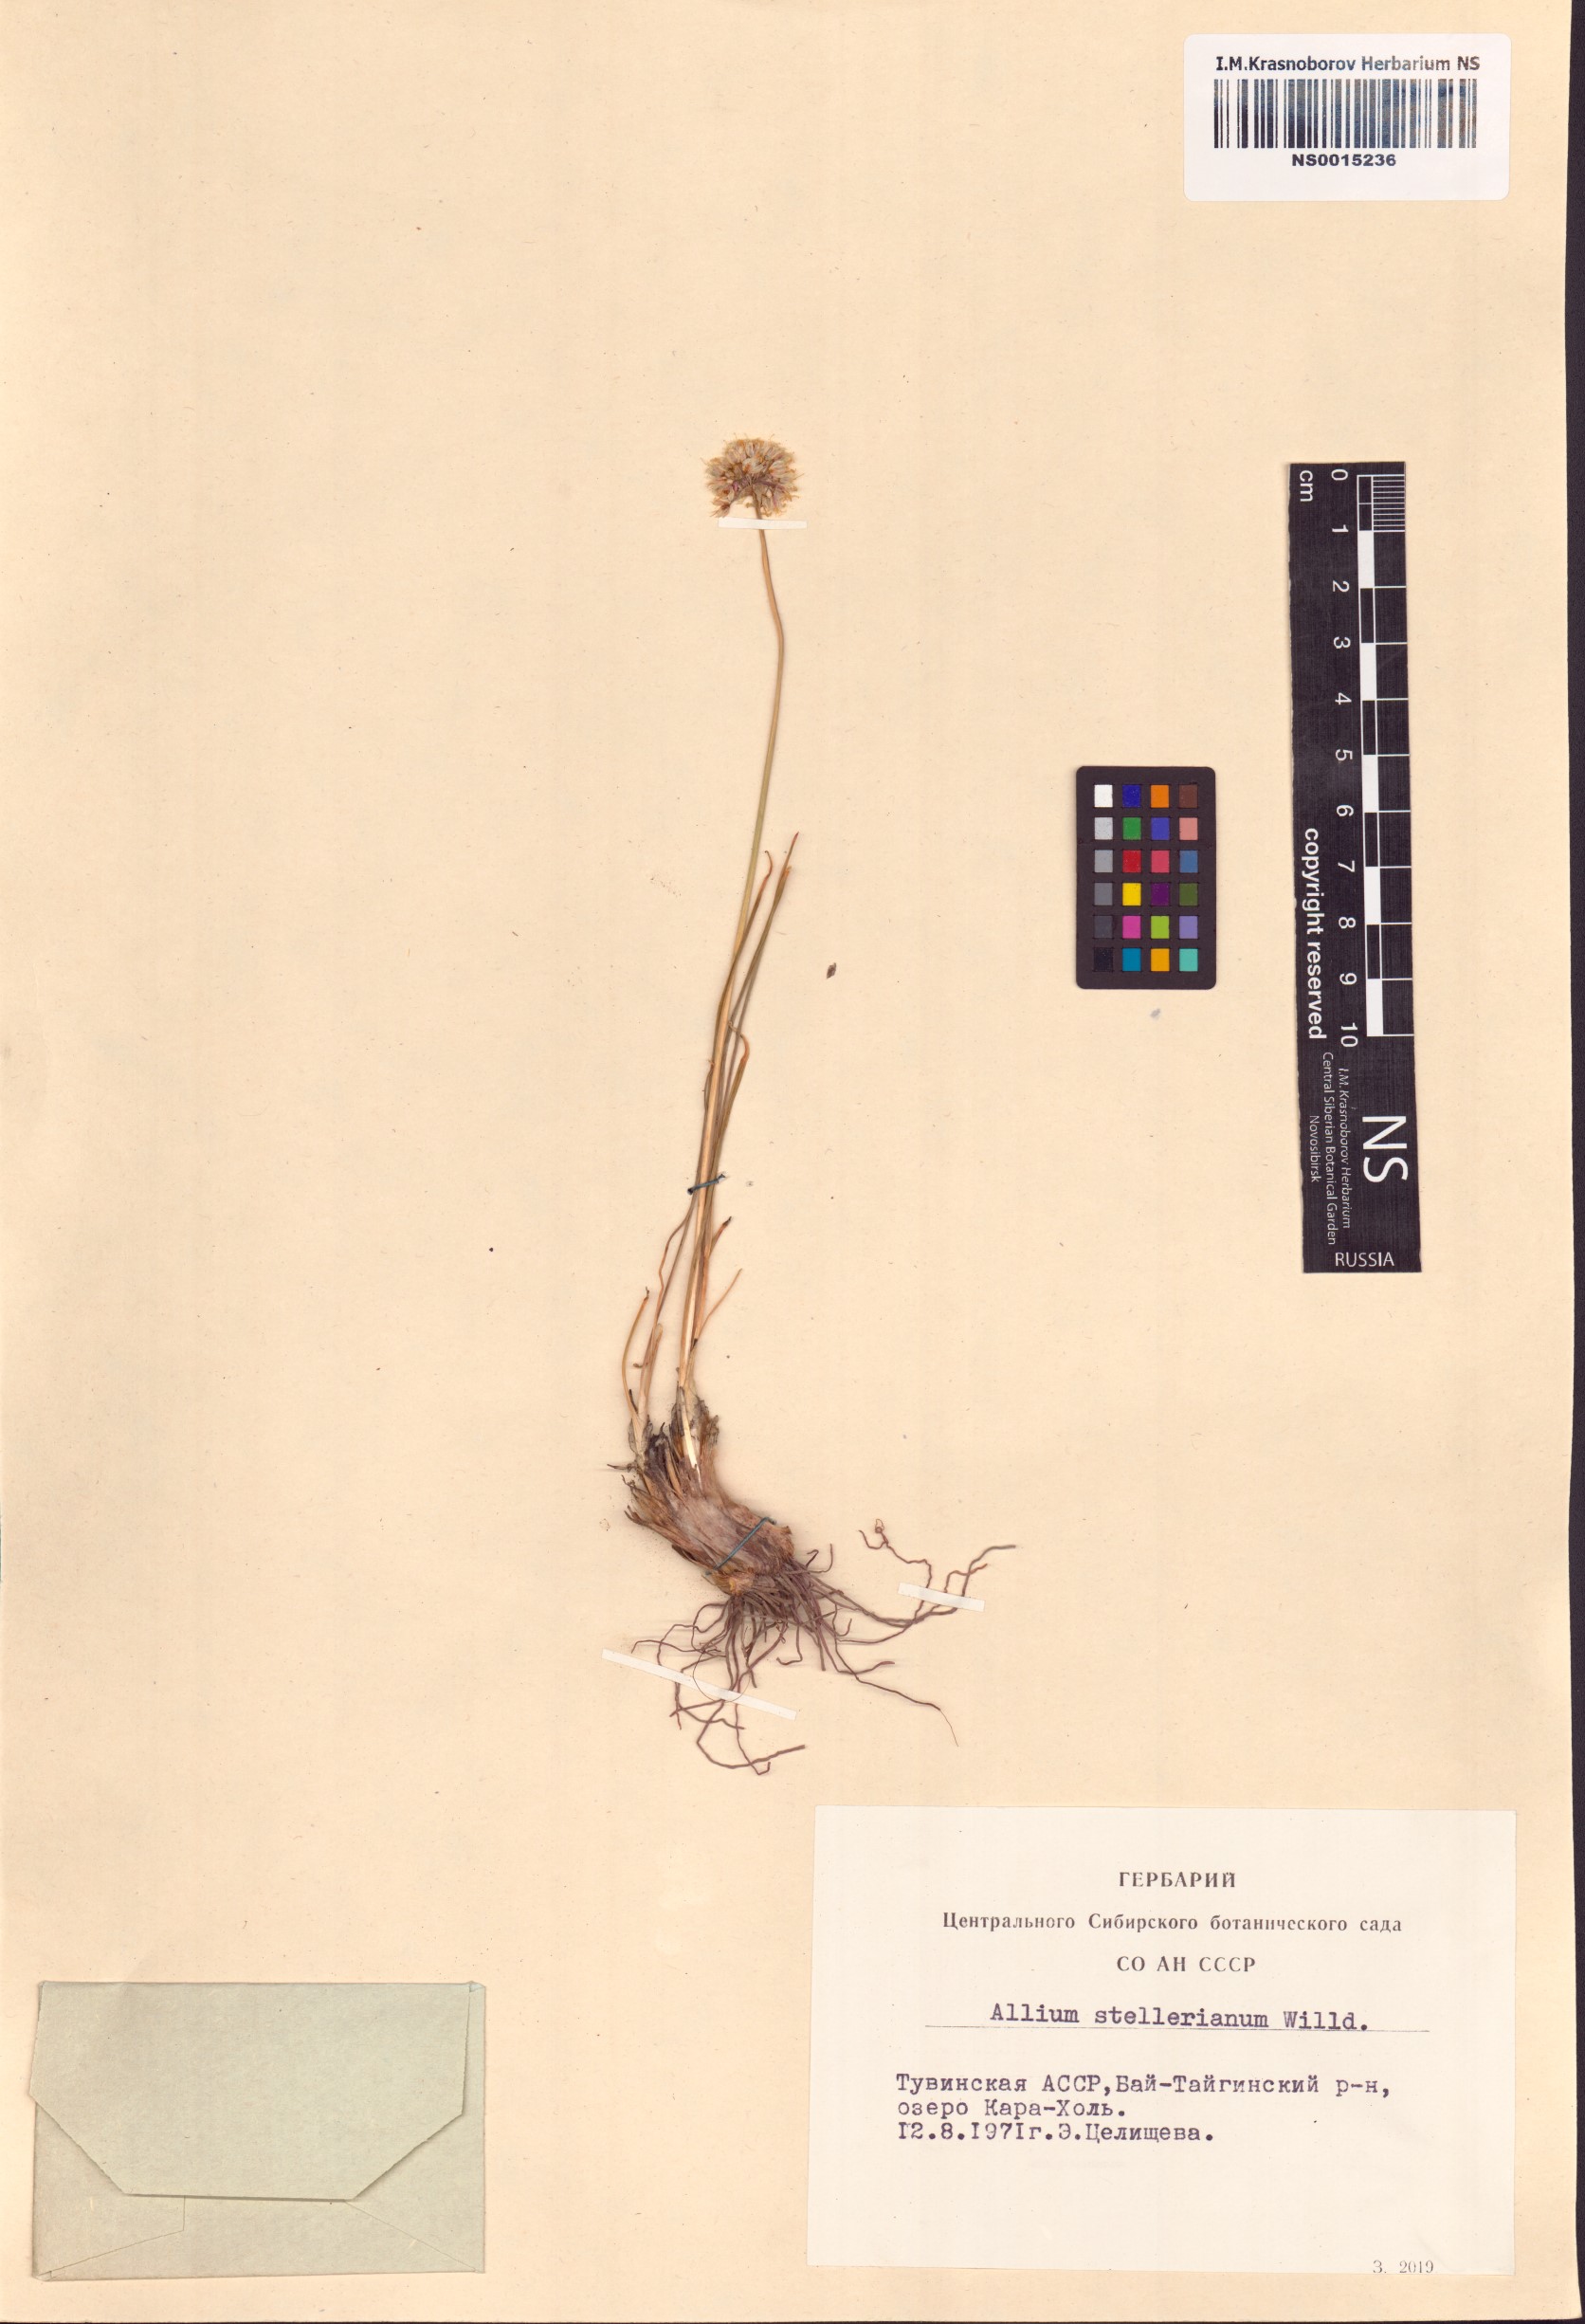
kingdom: Plantae
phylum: Tracheophyta
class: Liliopsida
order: Asparagales
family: Amaryllidaceae
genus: Allium
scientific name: Allium stellerianum
